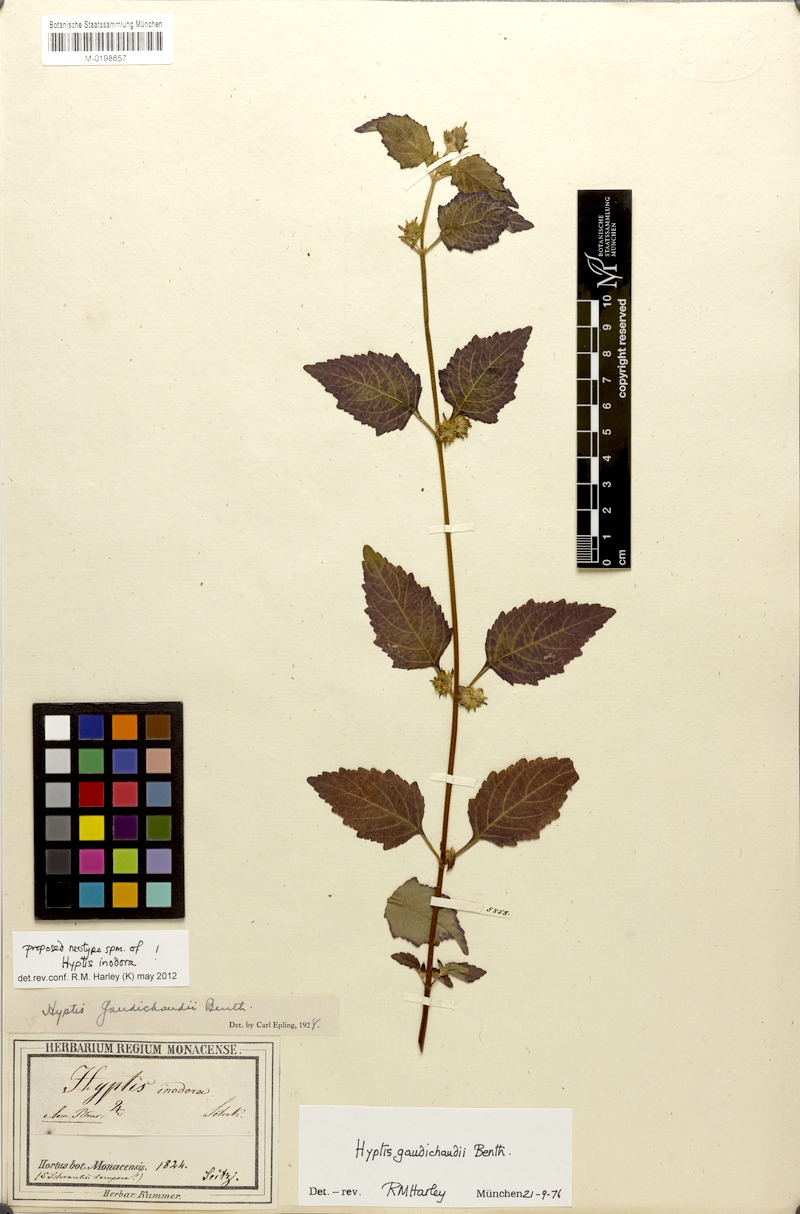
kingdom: Plantae
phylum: Tracheophyta
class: Magnoliopsida
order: Lamiales
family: Lamiaceae
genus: Hyptis
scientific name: Hyptis inodora
